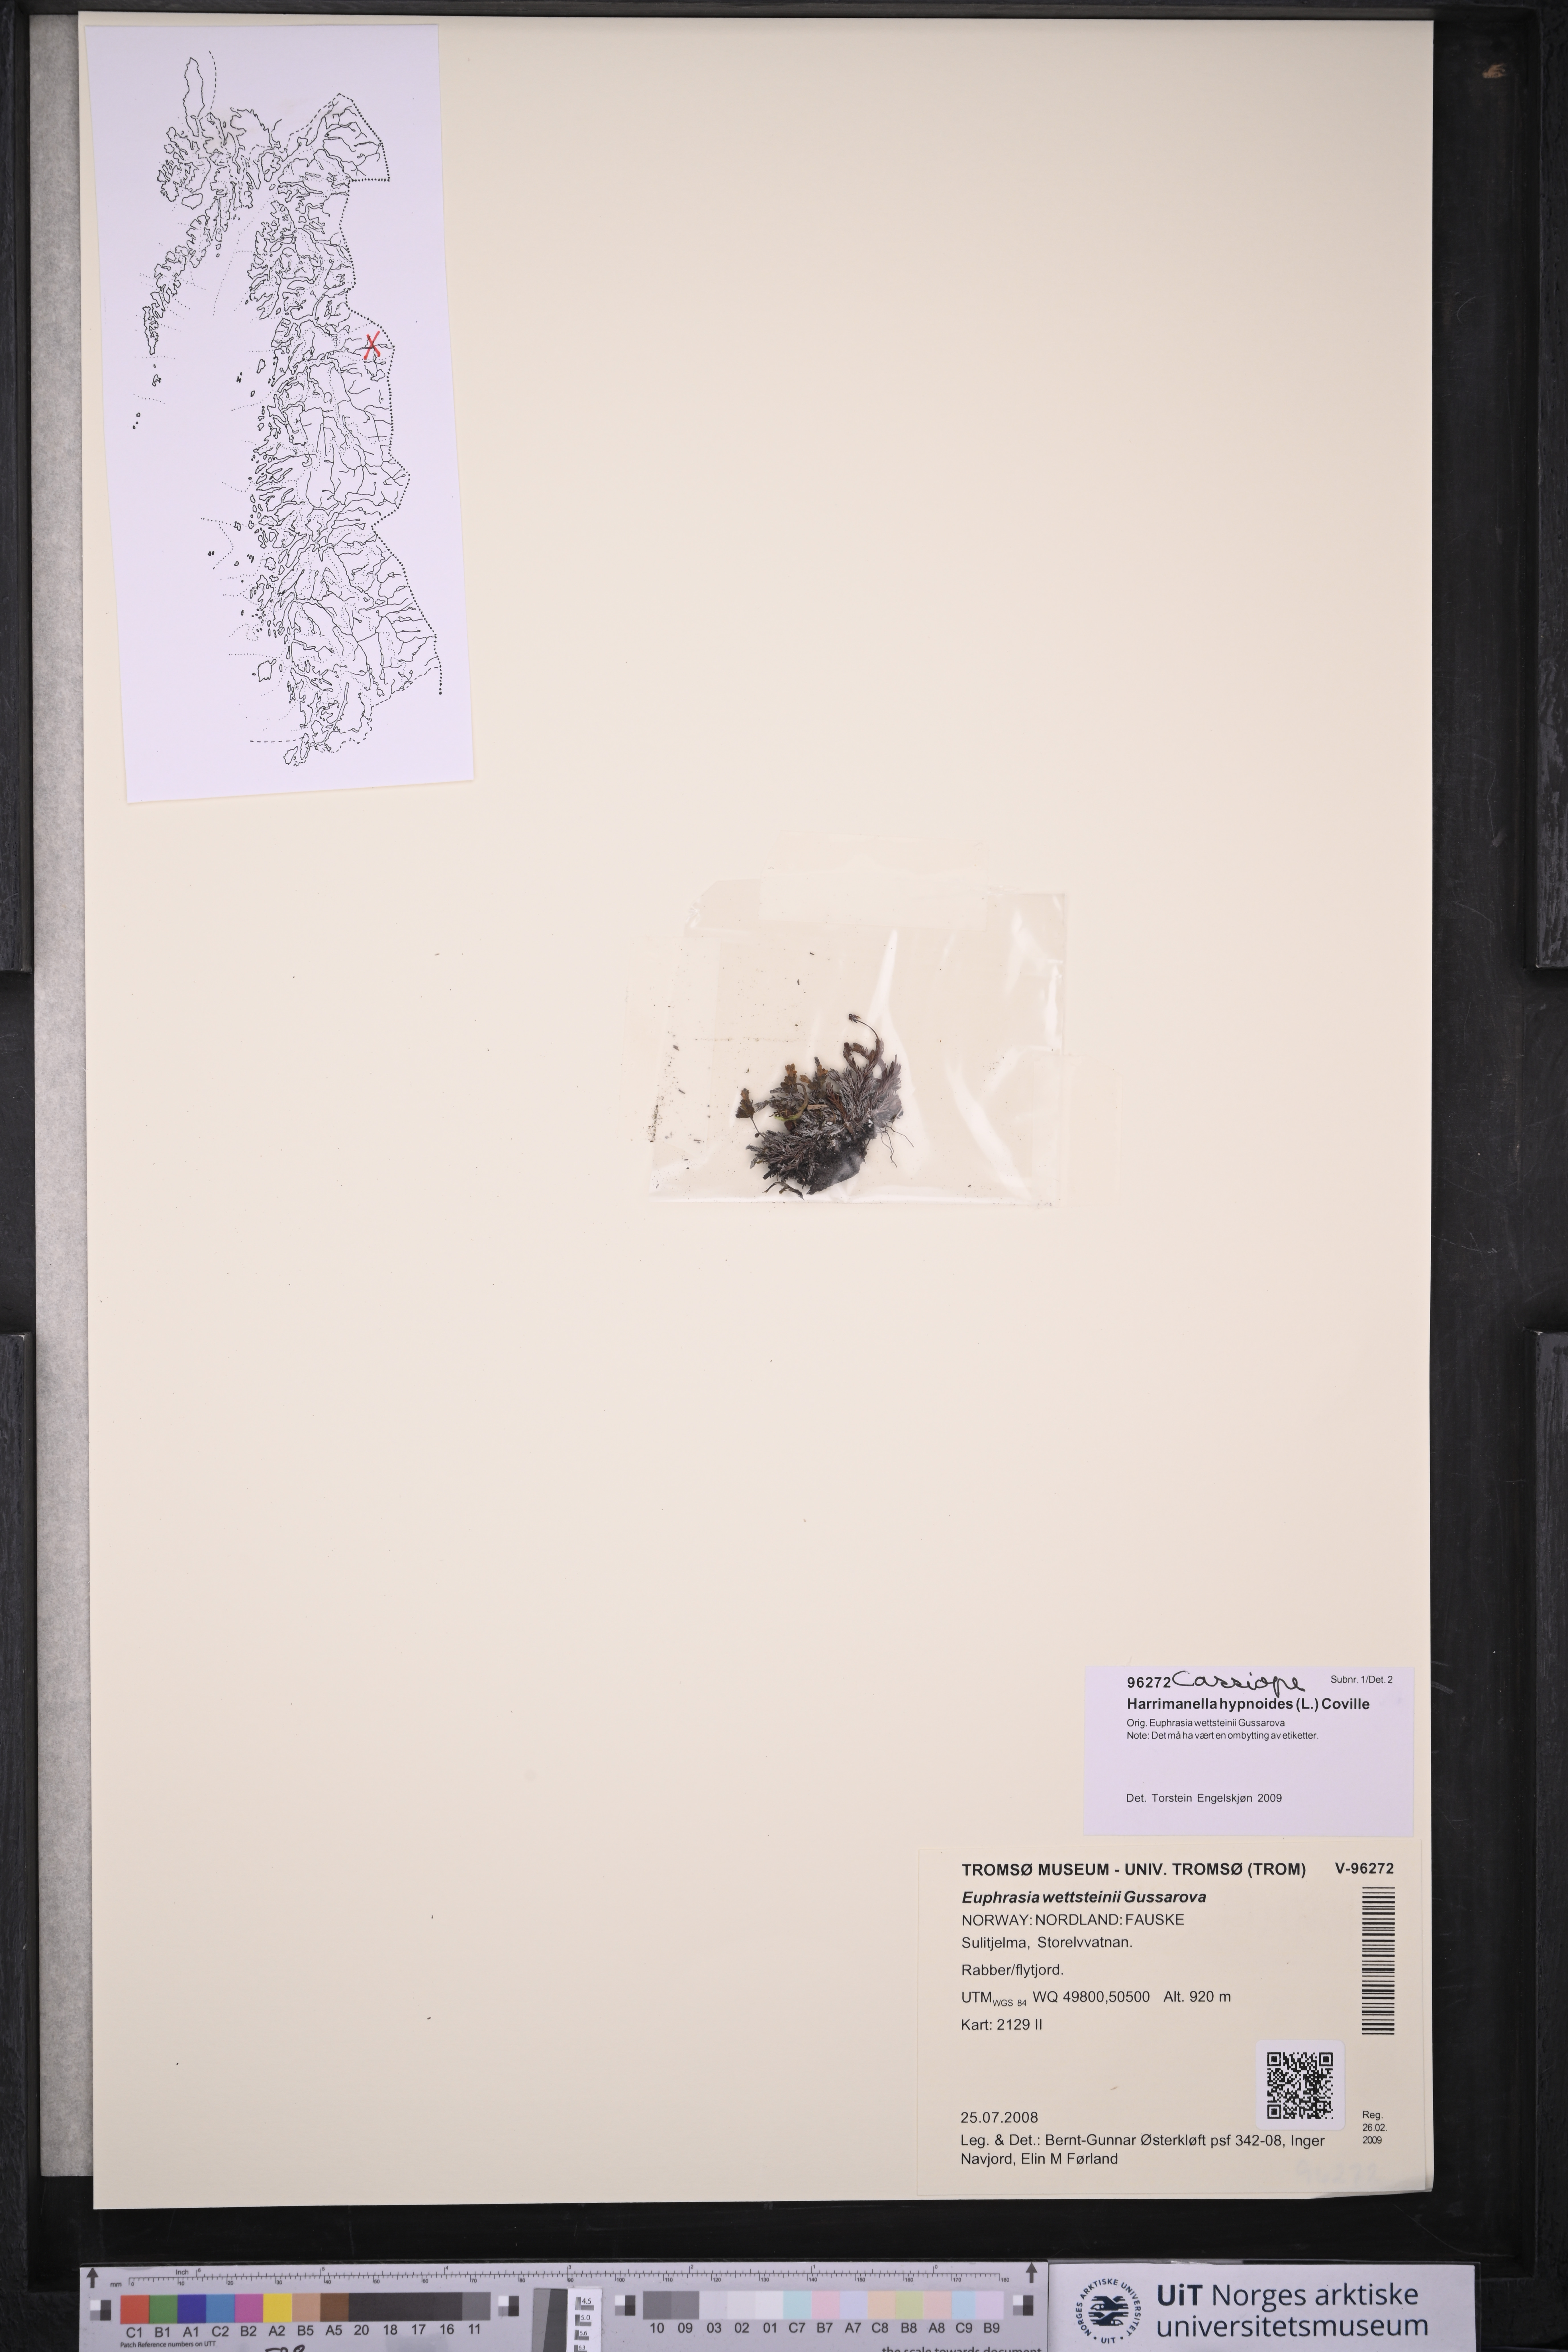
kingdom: Plantae
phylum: Tracheophyta
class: Magnoliopsida
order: Ericales
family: Ericaceae
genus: Harrimanella
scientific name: Harrimanella hypnoides
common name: Moss bell heather
